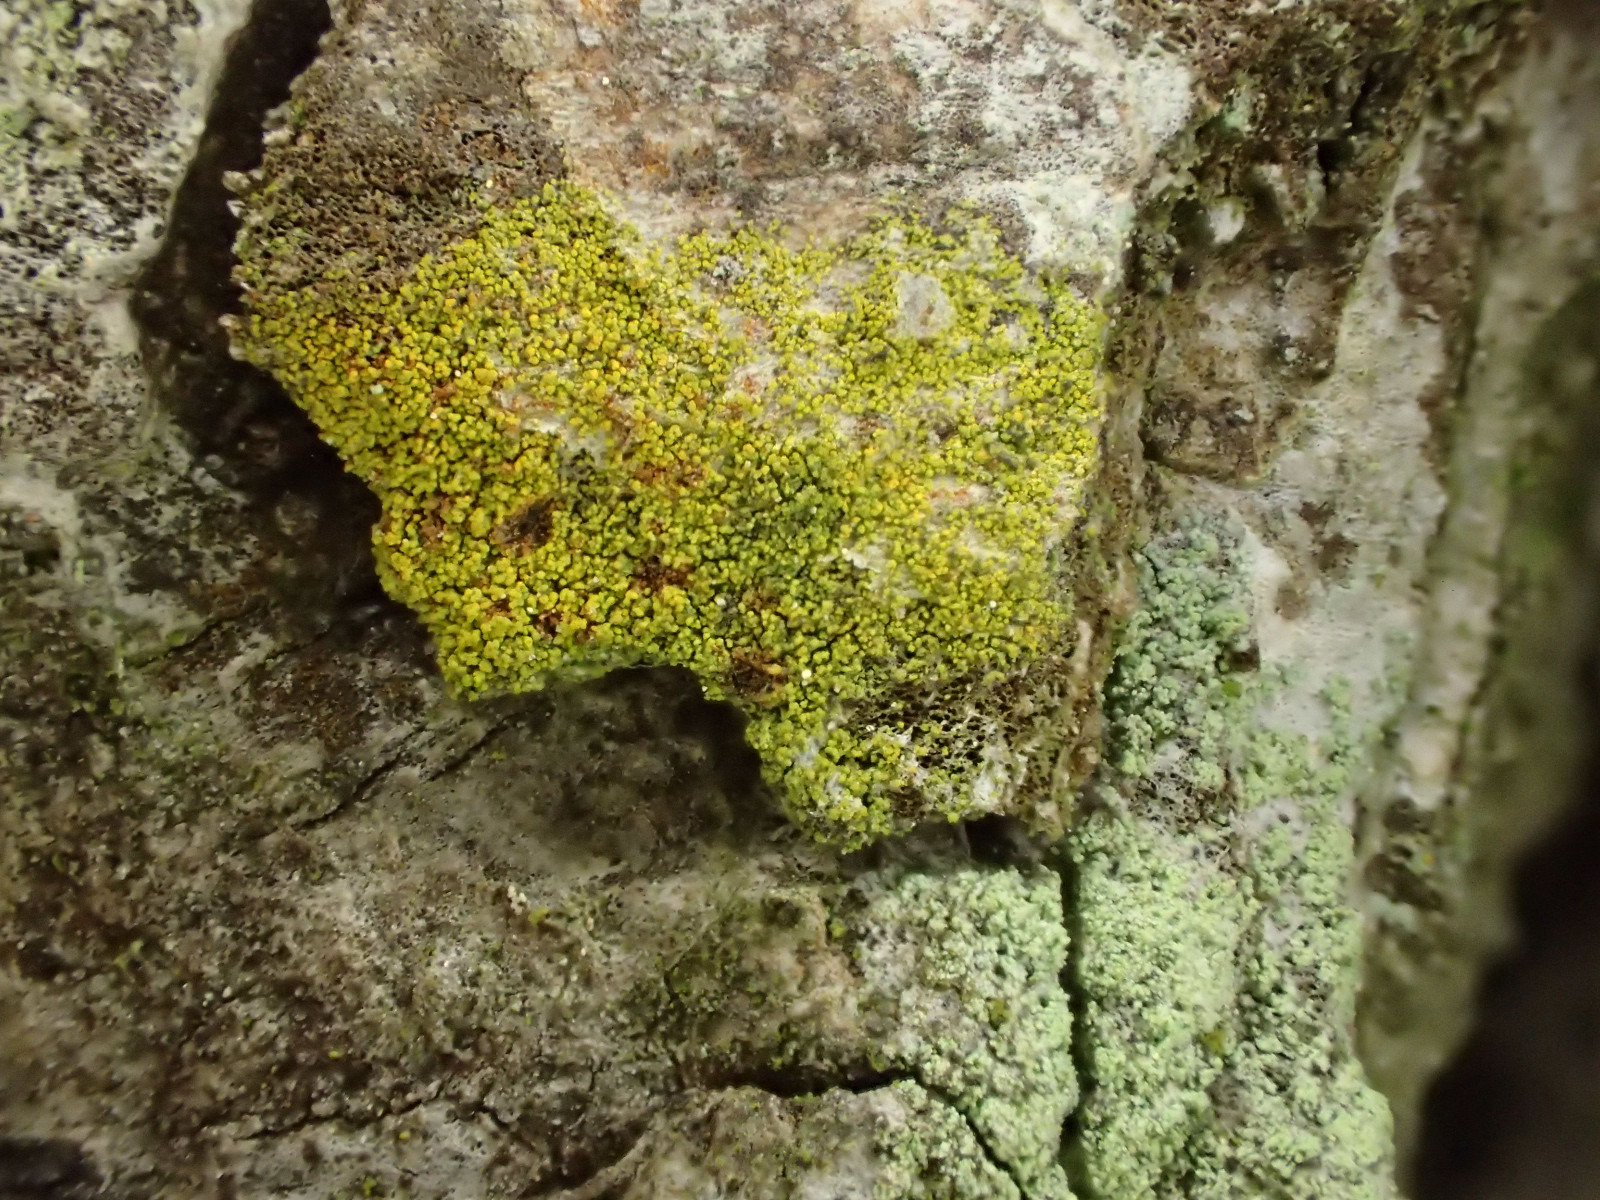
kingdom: Fungi
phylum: Ascomycota
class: Candelariomycetes
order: Candelariales
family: Candelariaceae
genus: Candelariella
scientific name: Candelariella reflexa
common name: grynskællet æggeblommelav
